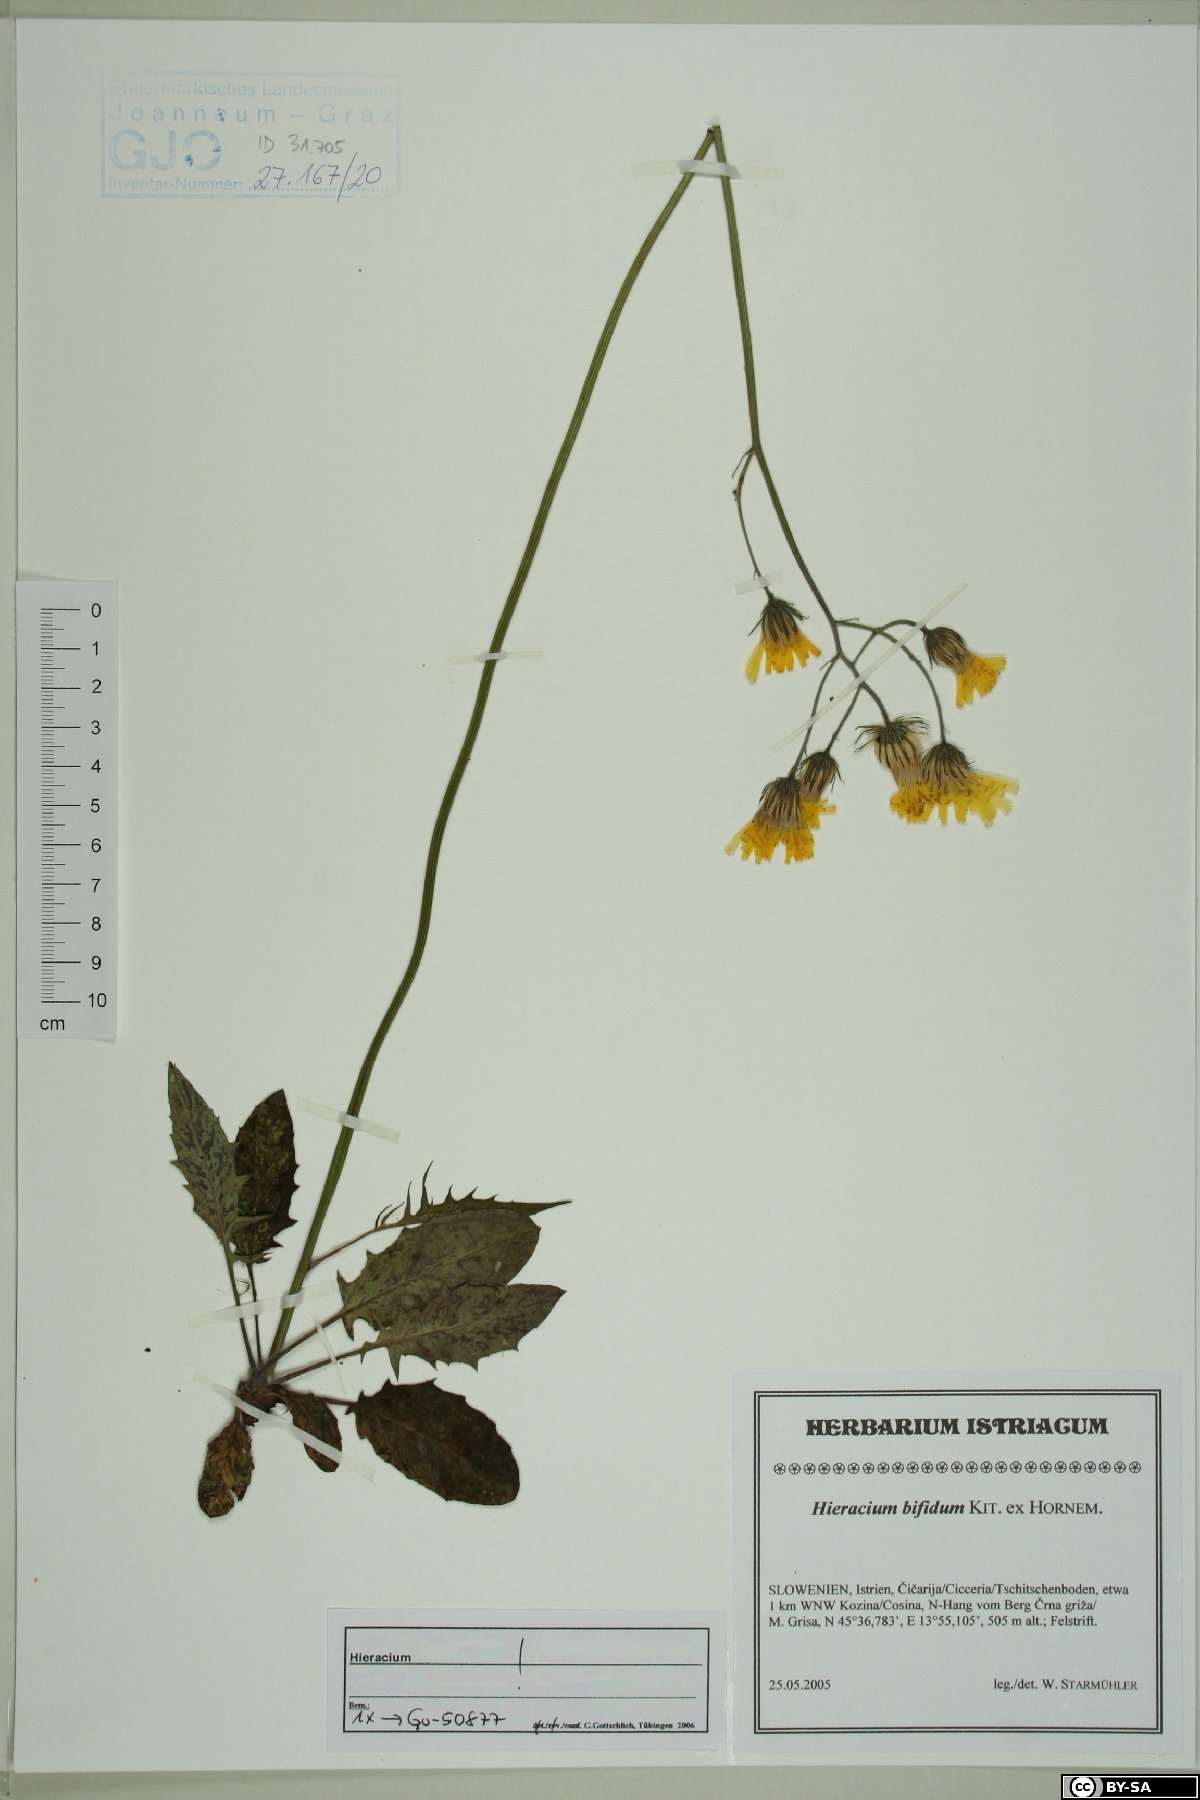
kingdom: Plantae
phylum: Tracheophyta
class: Magnoliopsida
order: Asterales
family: Asteraceae
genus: Hieracium
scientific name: Hieracium bifidum
